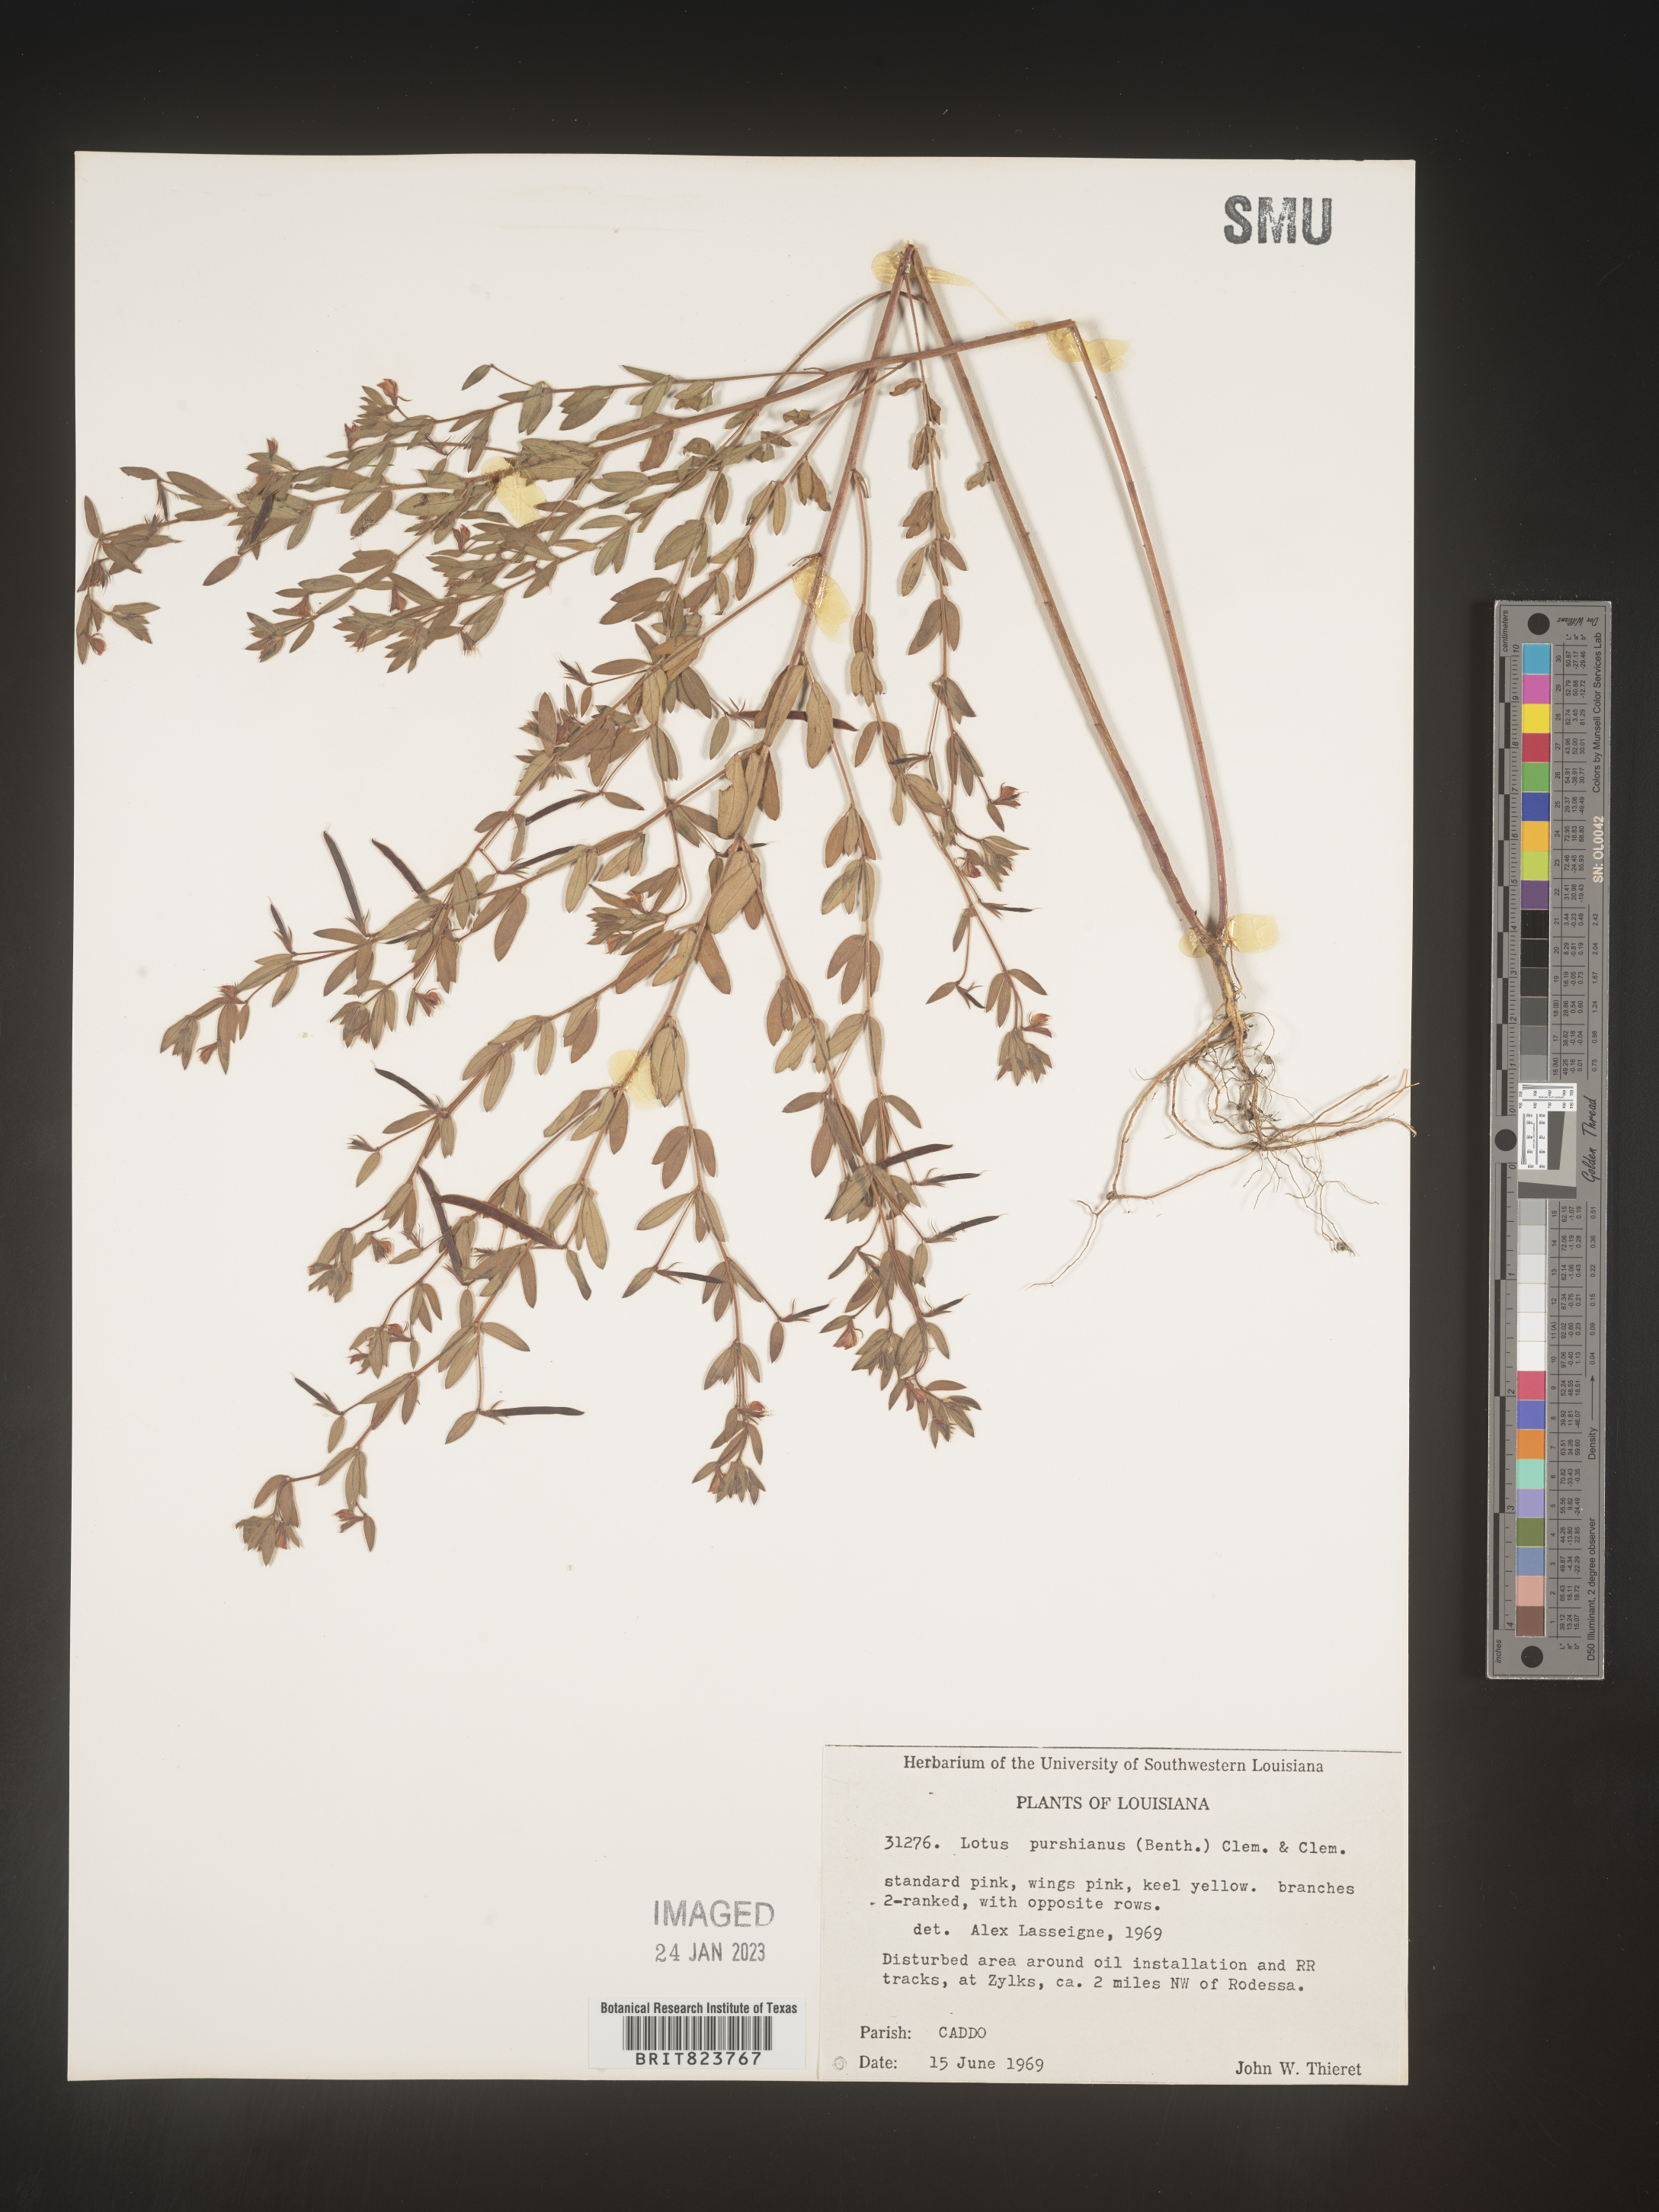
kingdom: Plantae
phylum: Tracheophyta
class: Magnoliopsida
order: Fabales
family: Fabaceae
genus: Acmispon
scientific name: Acmispon americanus
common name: American bird's-foot trefoil
